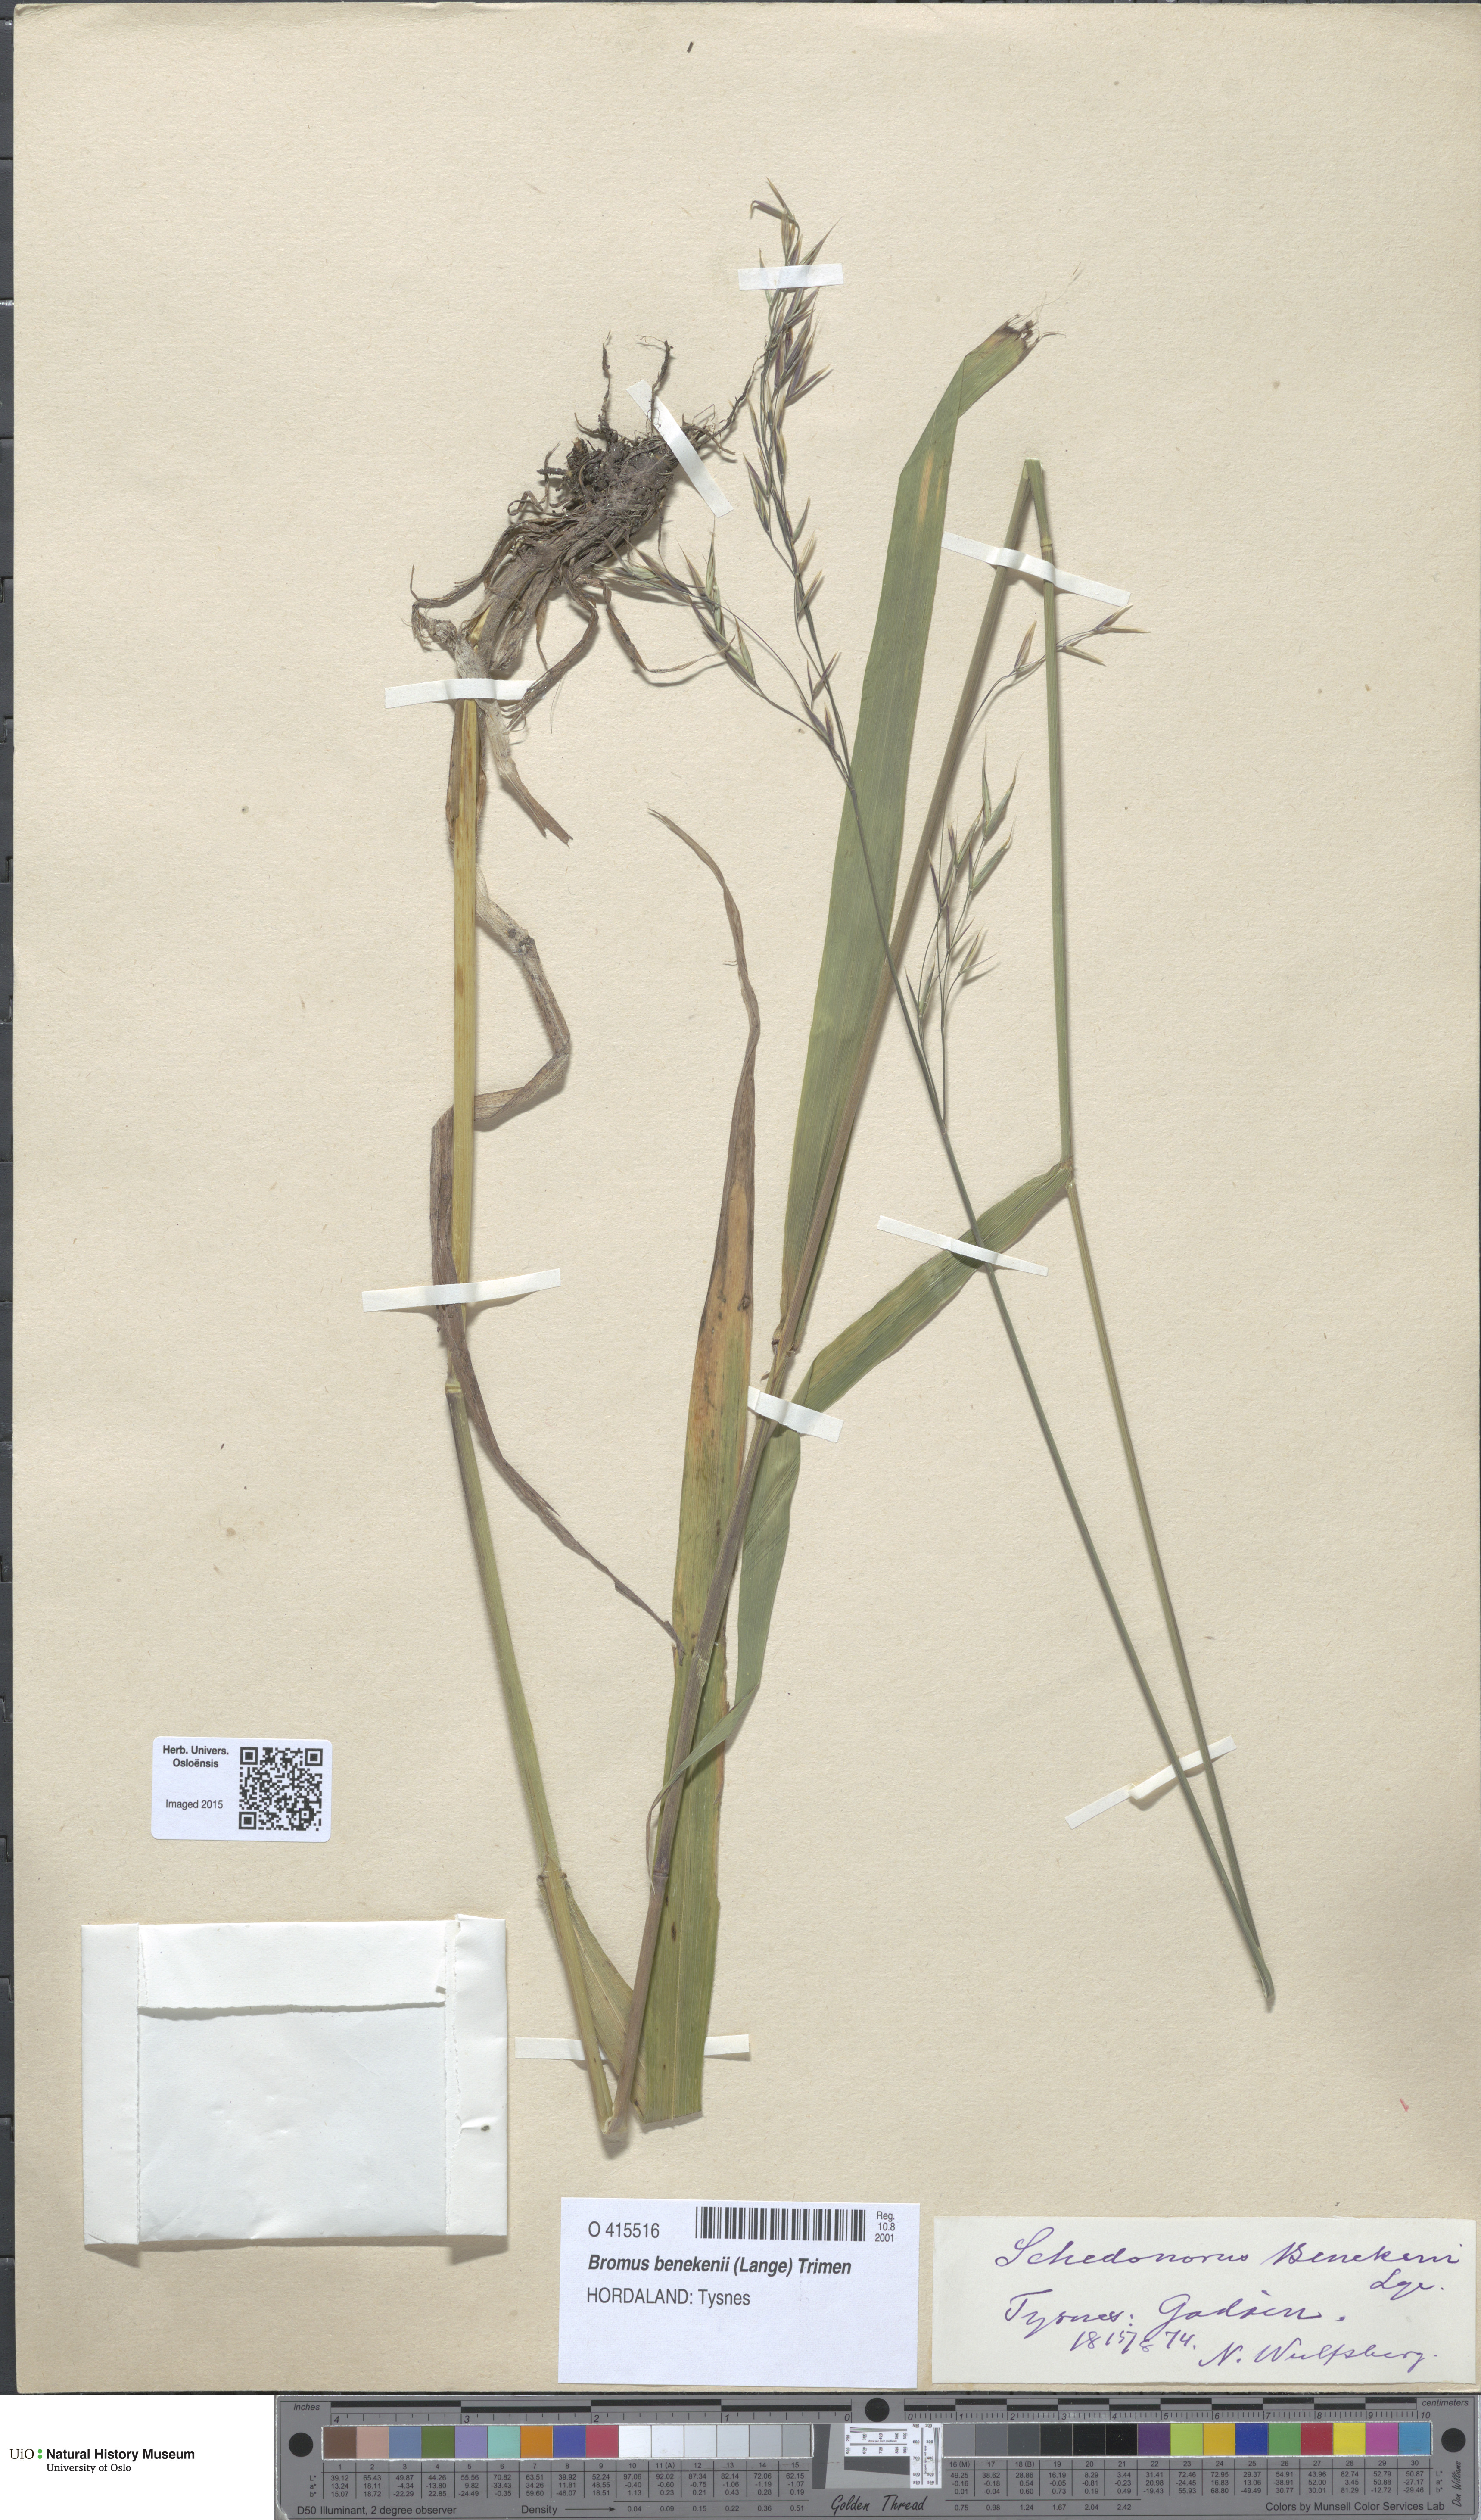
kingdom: Plantae
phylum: Tracheophyta
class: Liliopsida
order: Poales
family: Poaceae
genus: Bromus
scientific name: Bromus benekenii
